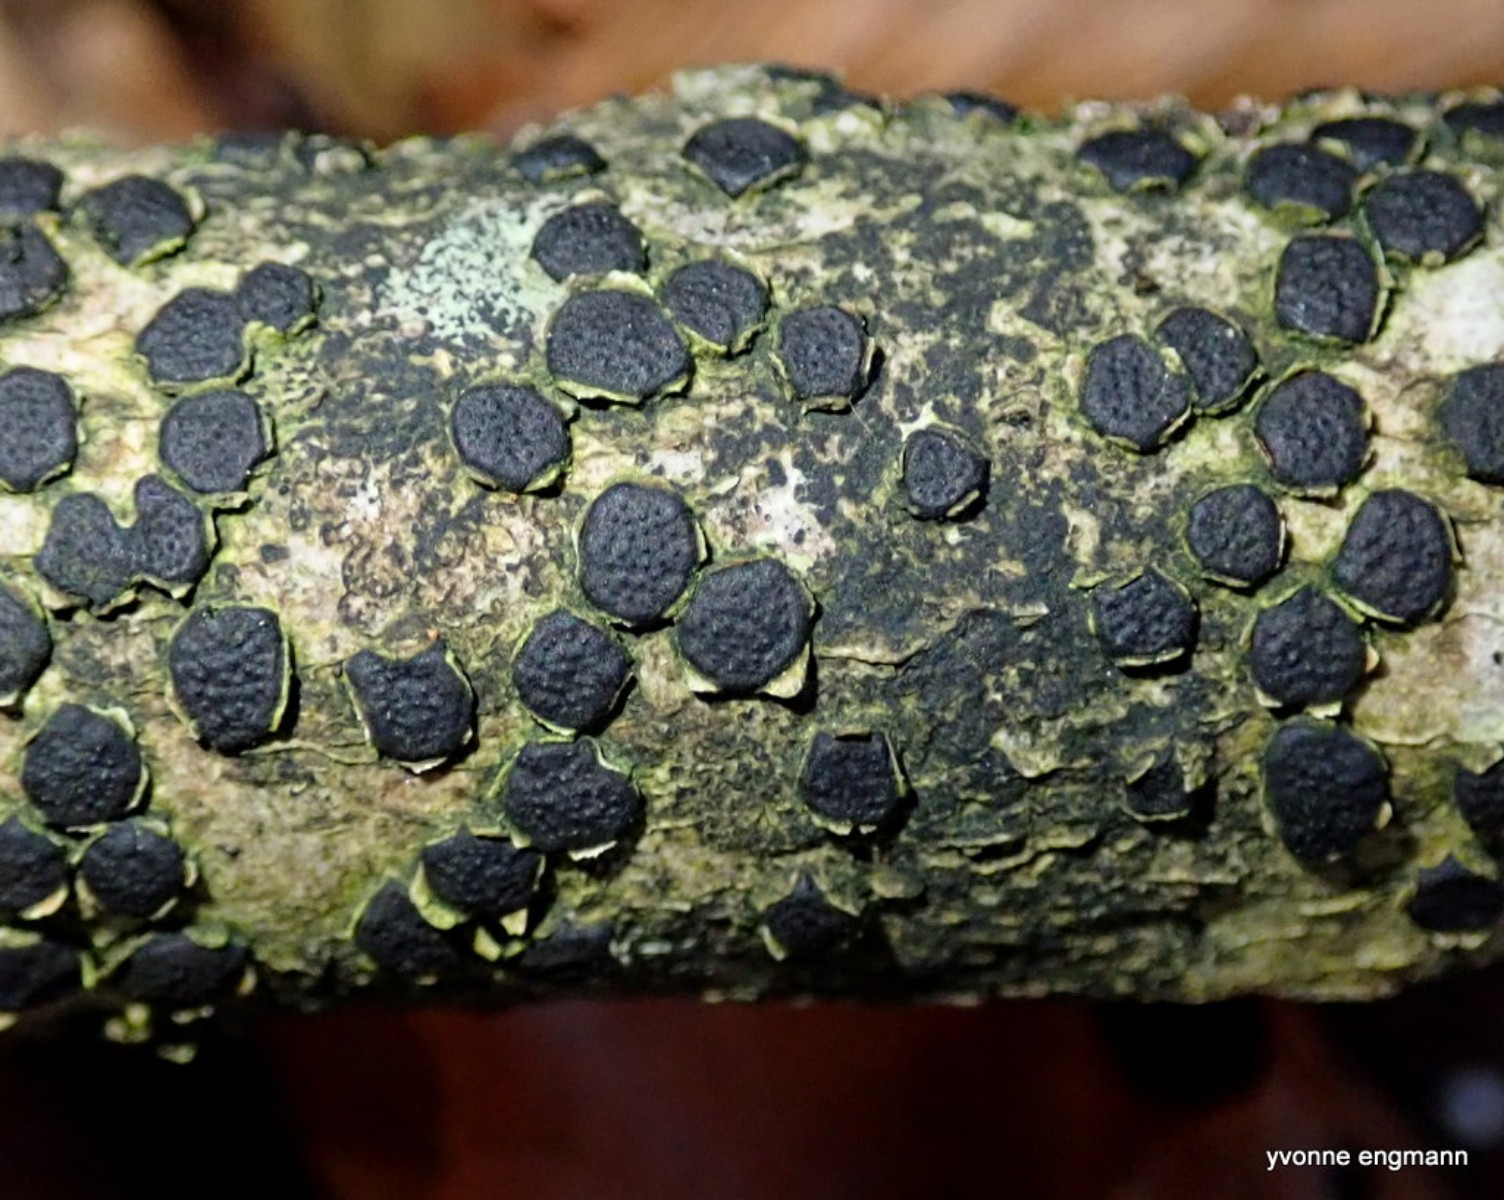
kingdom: Fungi
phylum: Ascomycota
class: Sordariomycetes
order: Xylariales
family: Diatrypaceae
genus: Diatrype
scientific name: Diatrype disciformis
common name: kant-kulskorpe
